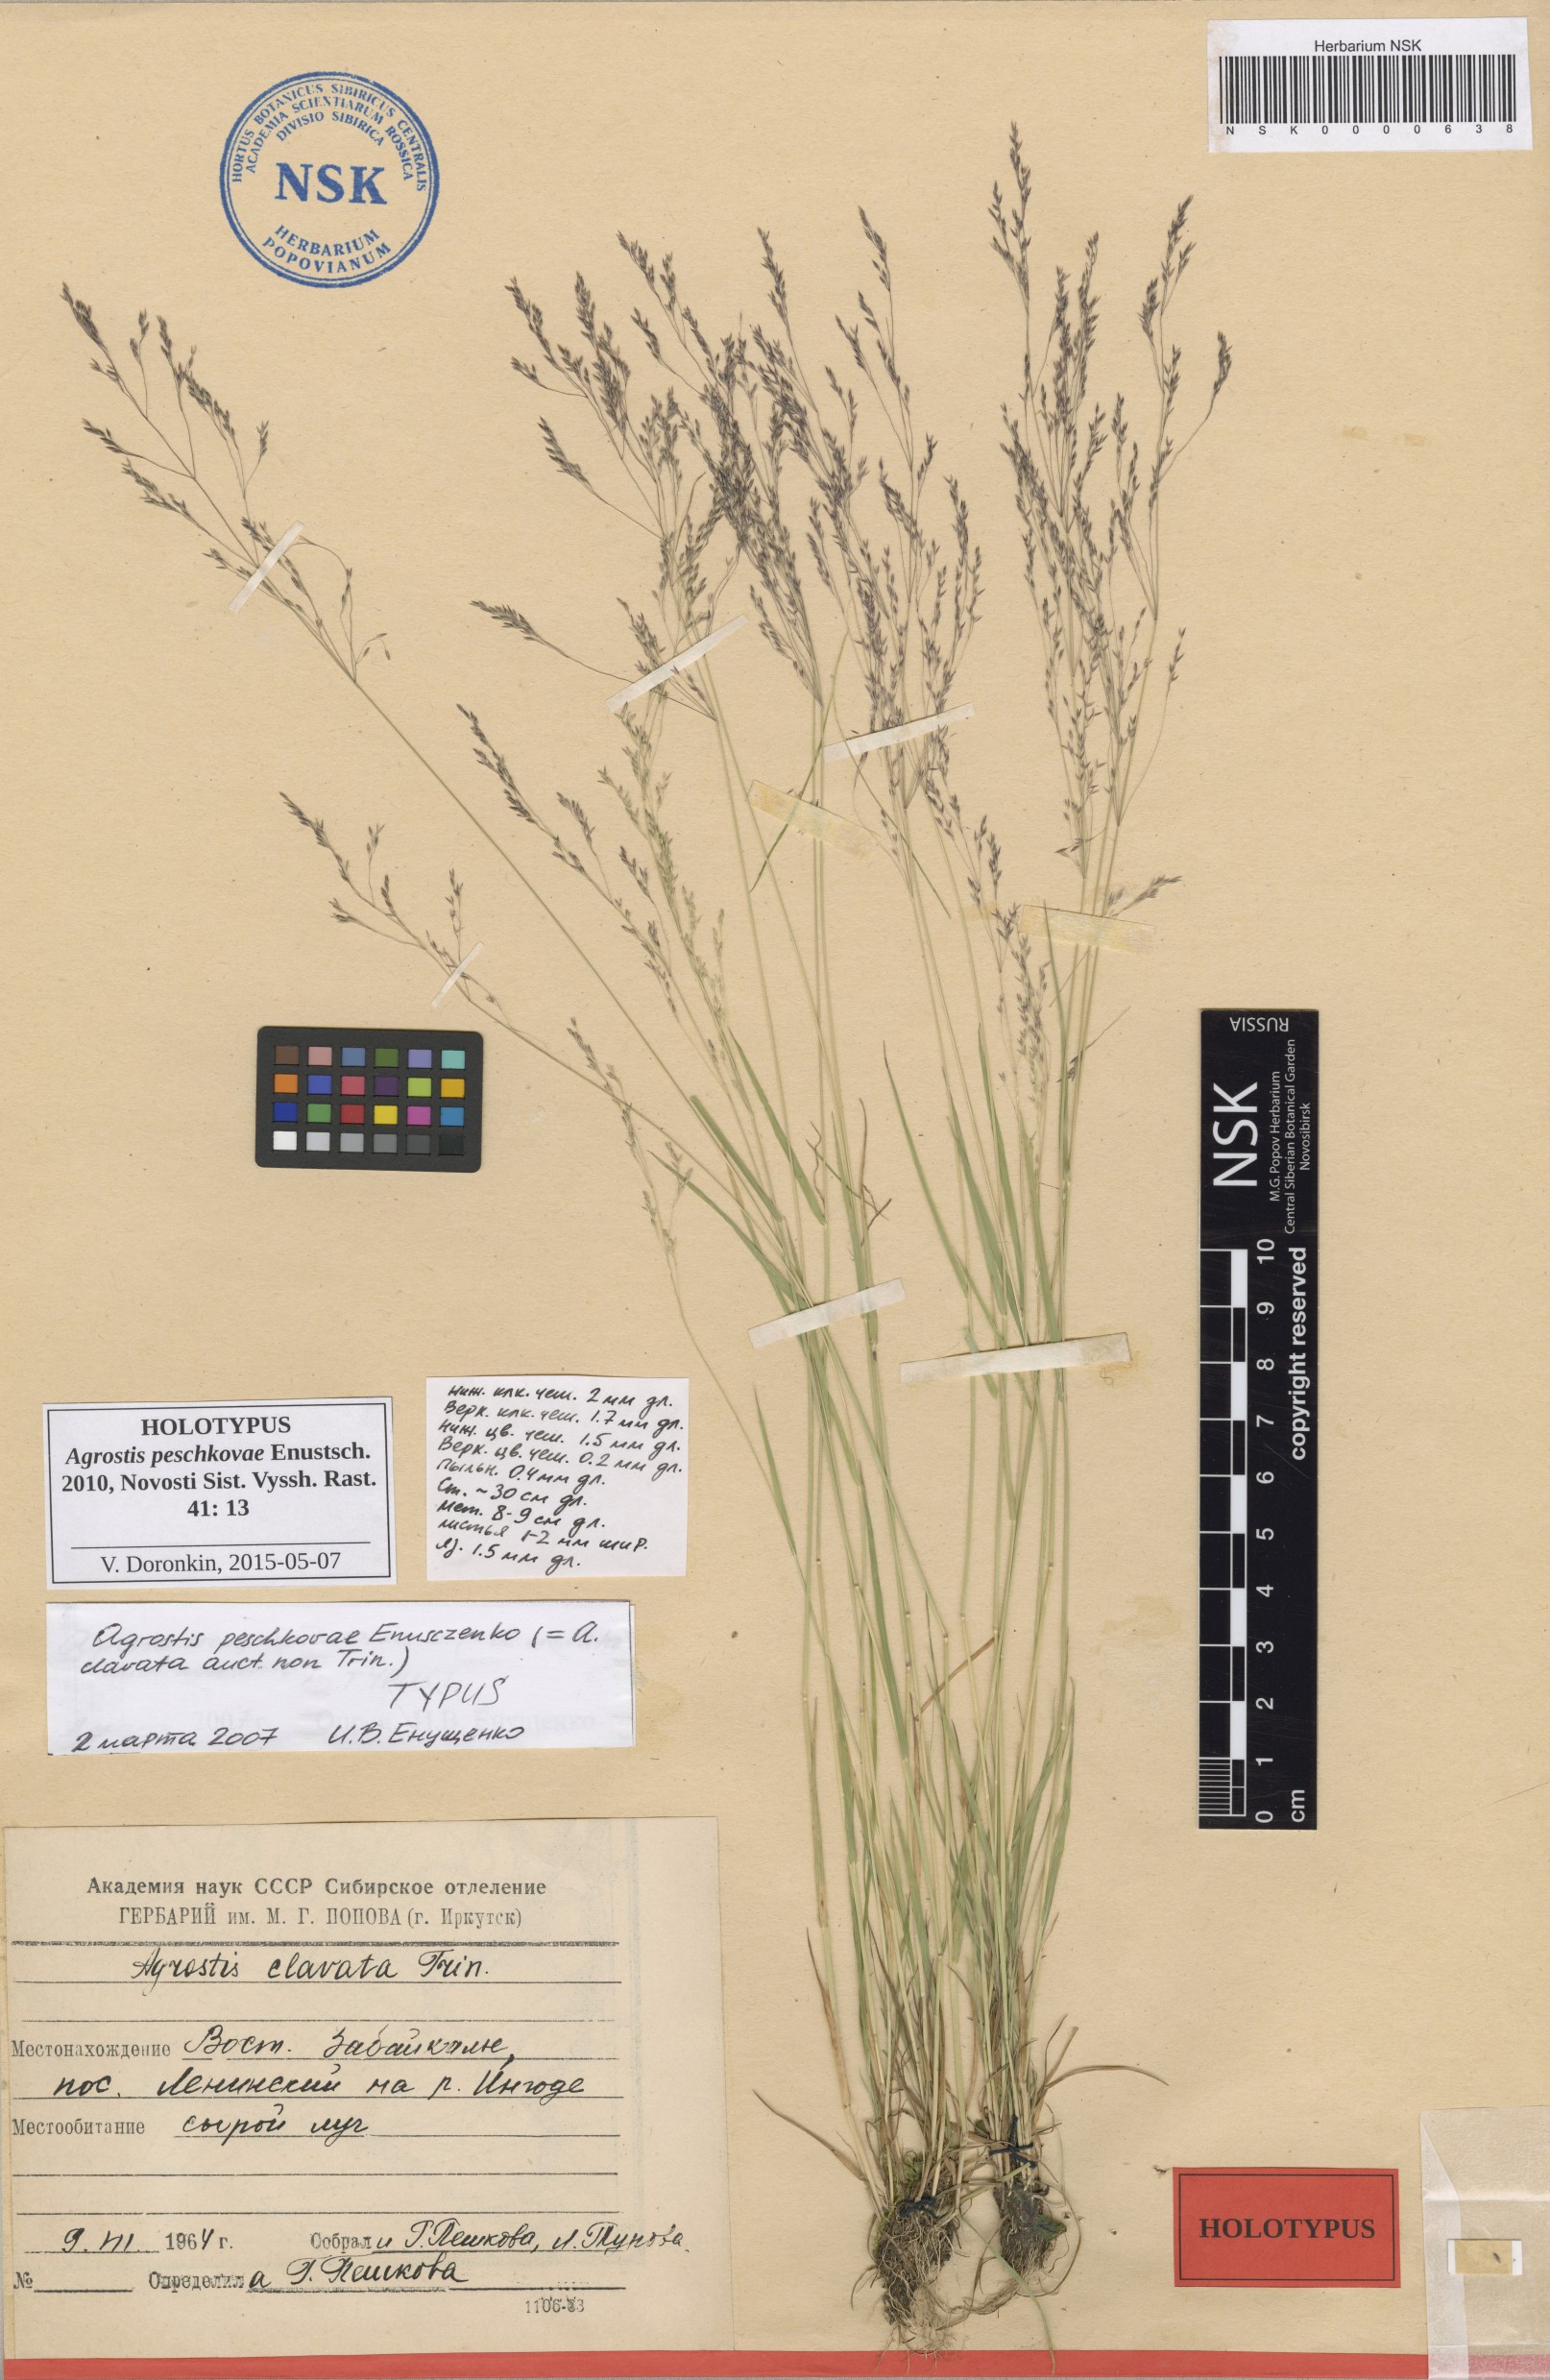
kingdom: Plantae
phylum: Tracheophyta
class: Liliopsida
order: Poales
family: Poaceae
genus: Agrostis
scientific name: Agrostis peschkovae
